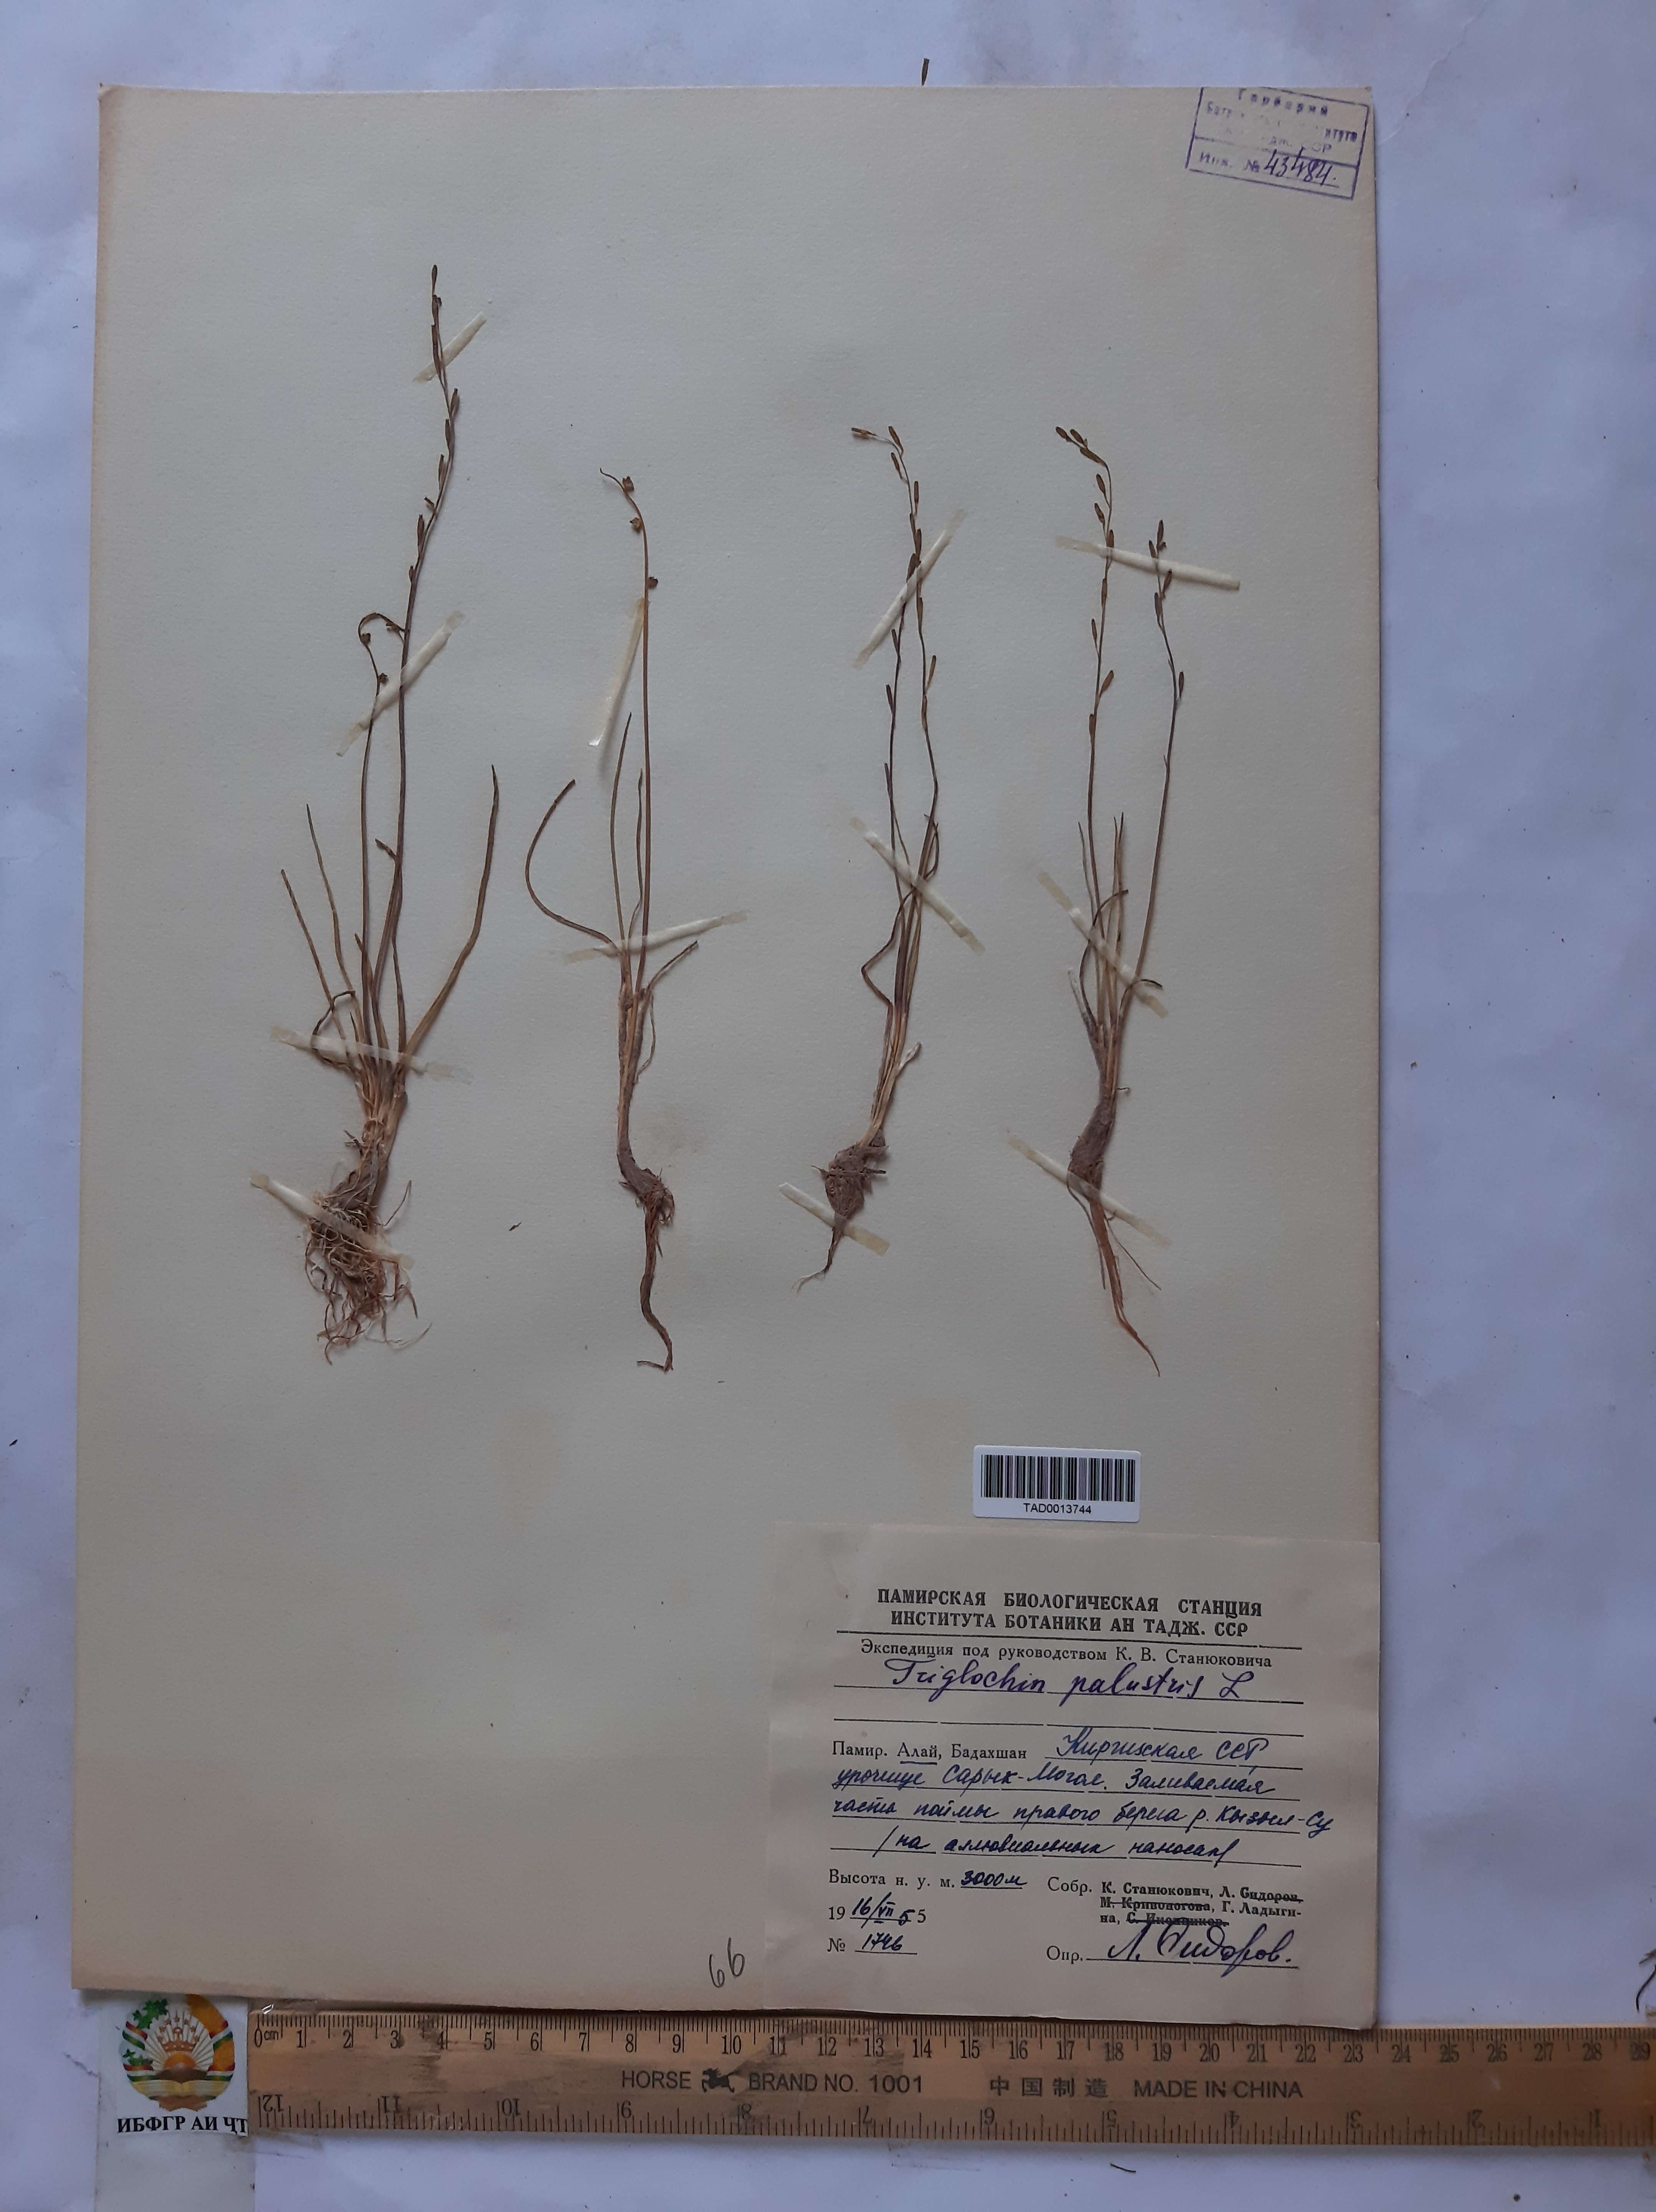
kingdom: Plantae
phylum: Tracheophyta
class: Liliopsida
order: Alismatales
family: Juncaginaceae
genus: Triglochin
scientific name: Triglochin palustris
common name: Marsh arrowgrass
